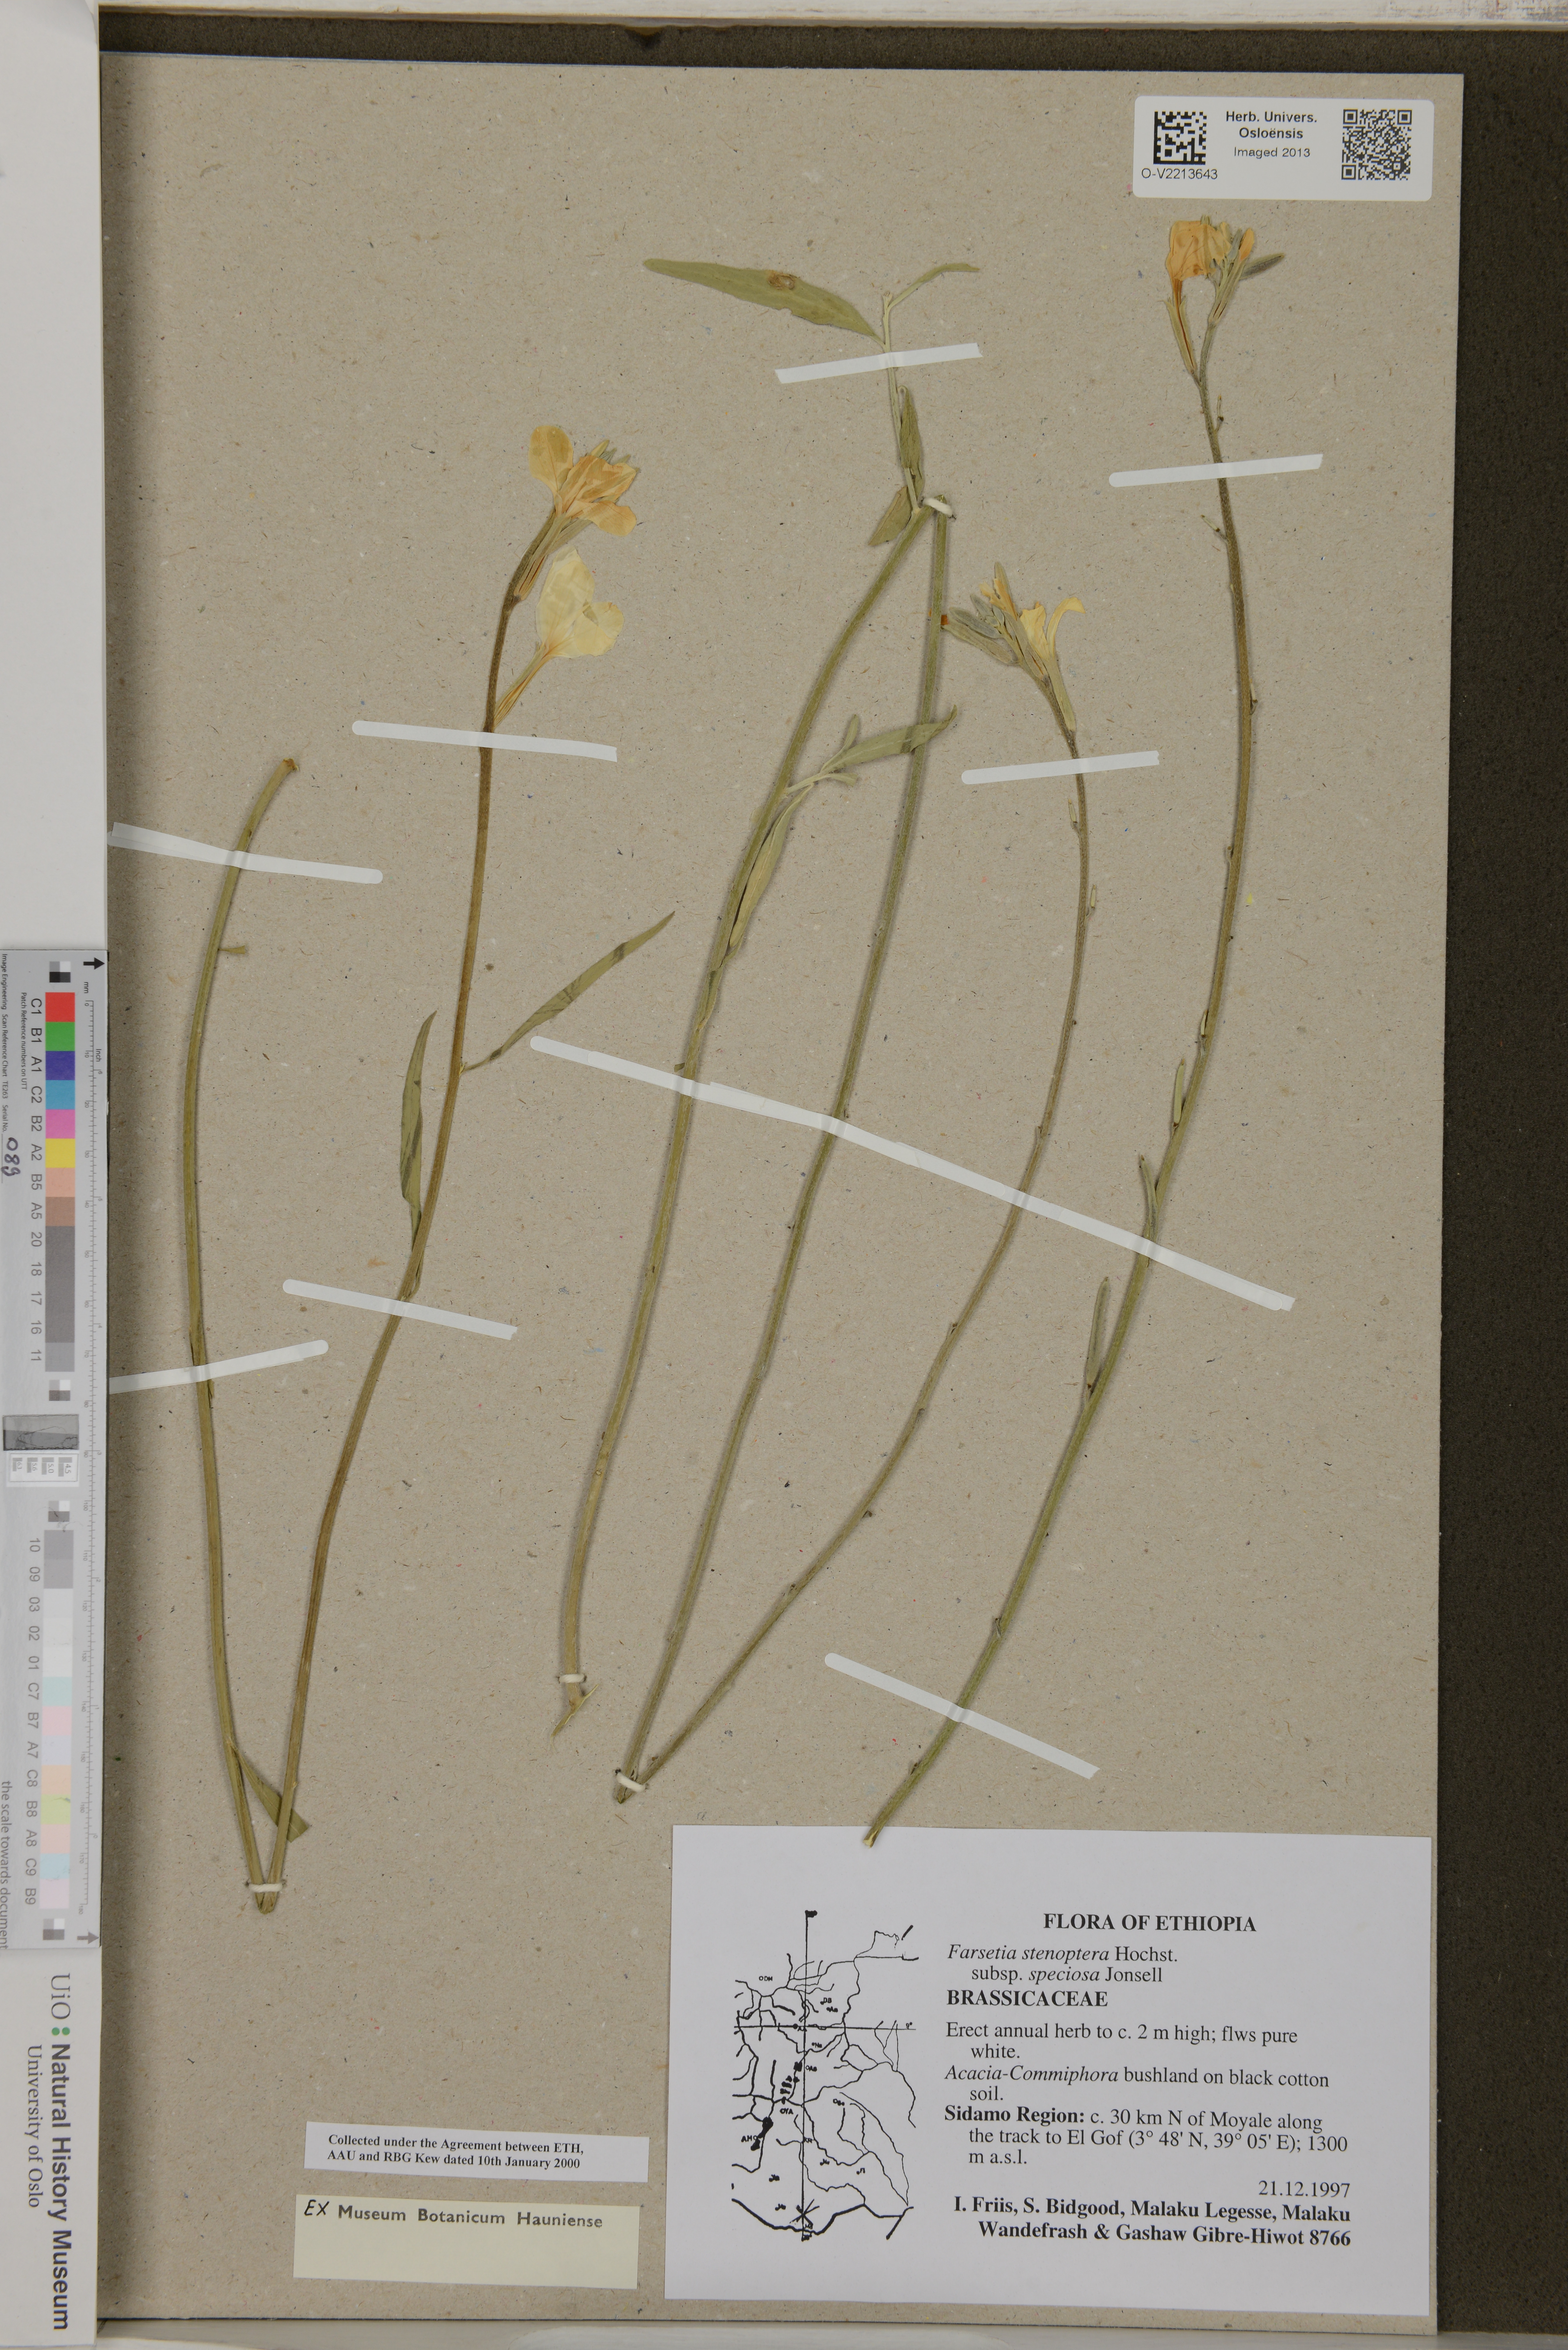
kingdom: Plantae
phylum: Tracheophyta
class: Magnoliopsida
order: Brassicales
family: Brassicaceae
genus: Farsetia
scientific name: Farsetia stenoptera
